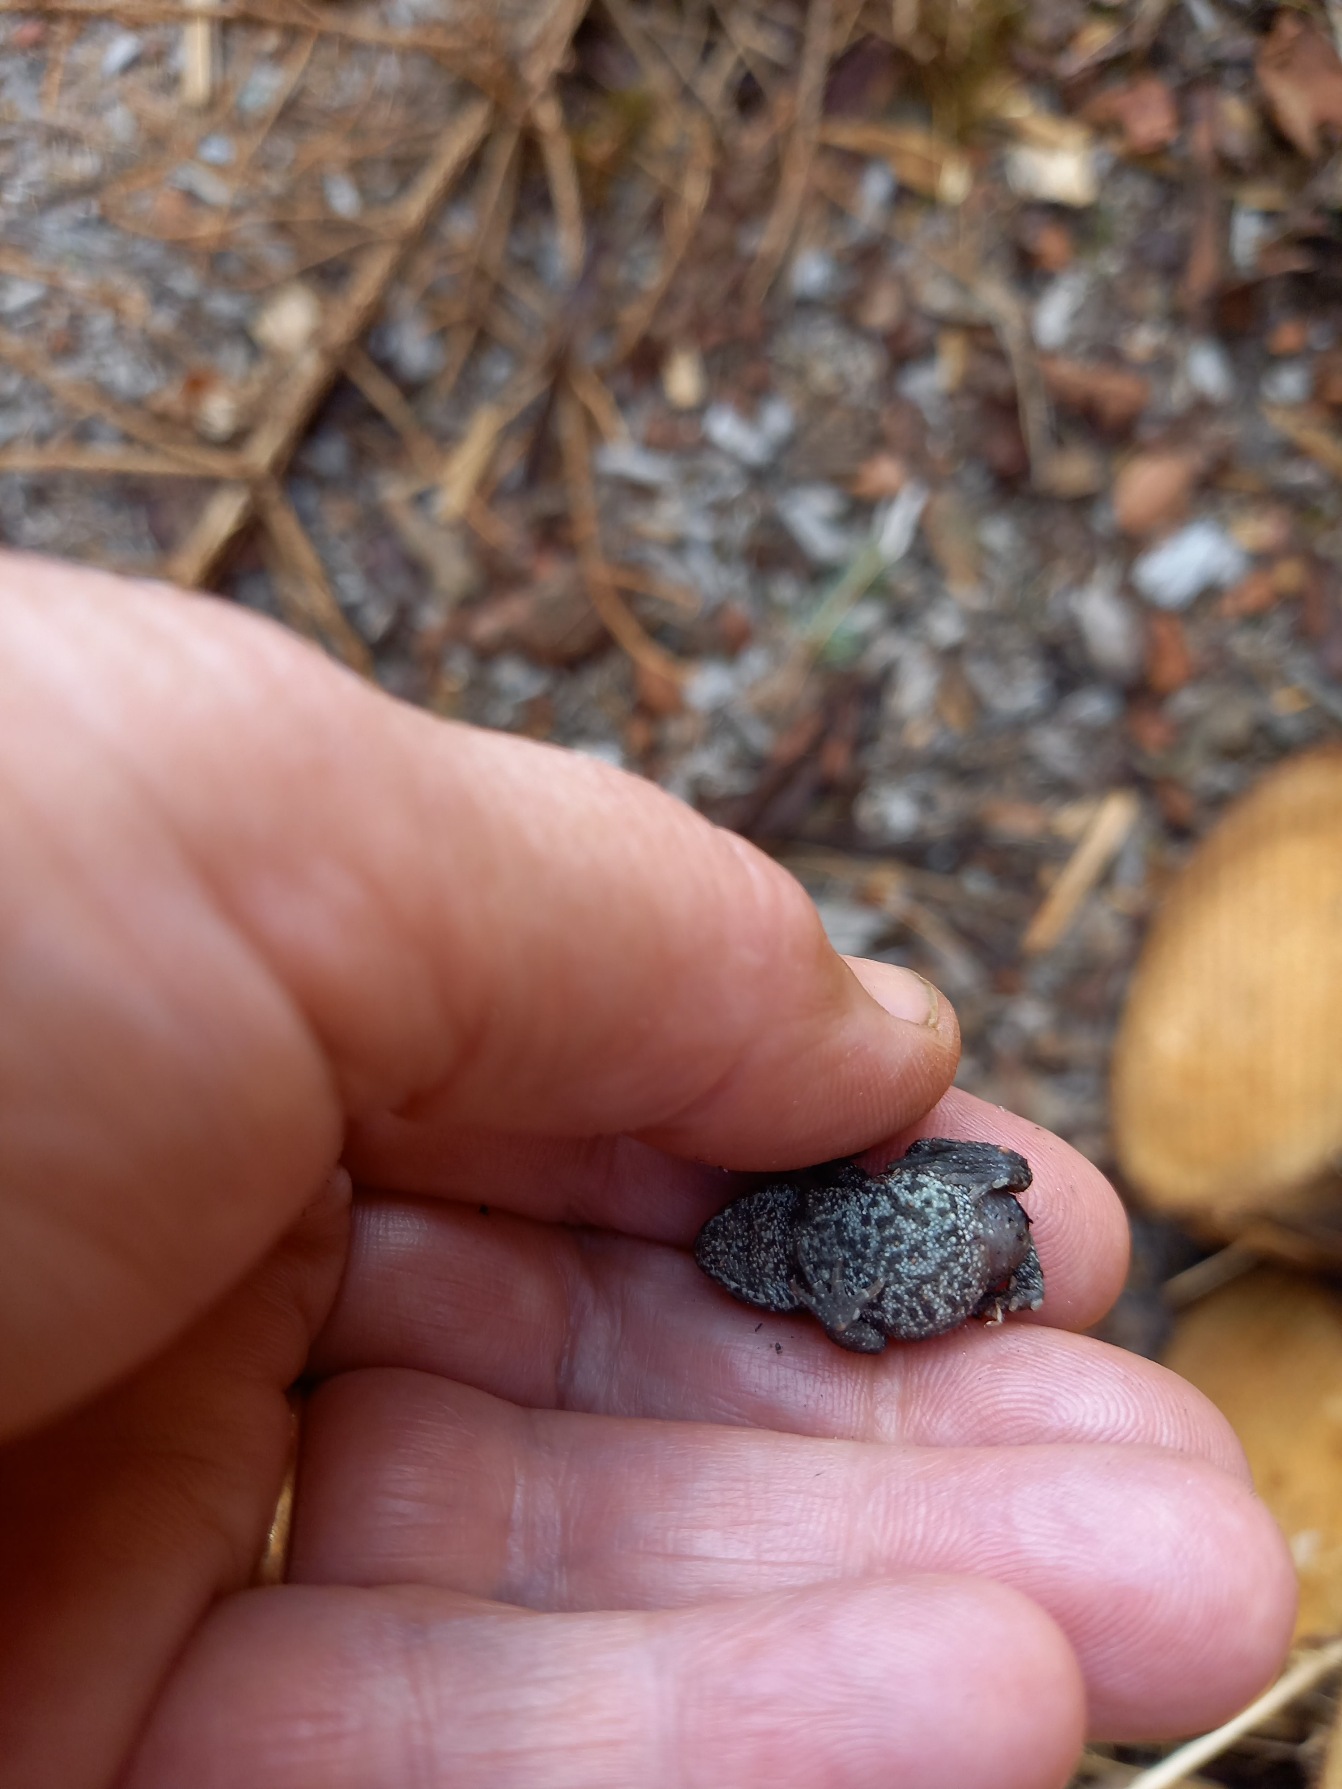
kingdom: Animalia
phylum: Chordata
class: Amphibia
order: Anura
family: Bufonidae
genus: Bufo
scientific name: Bufo bufo
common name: Skrubtudse
